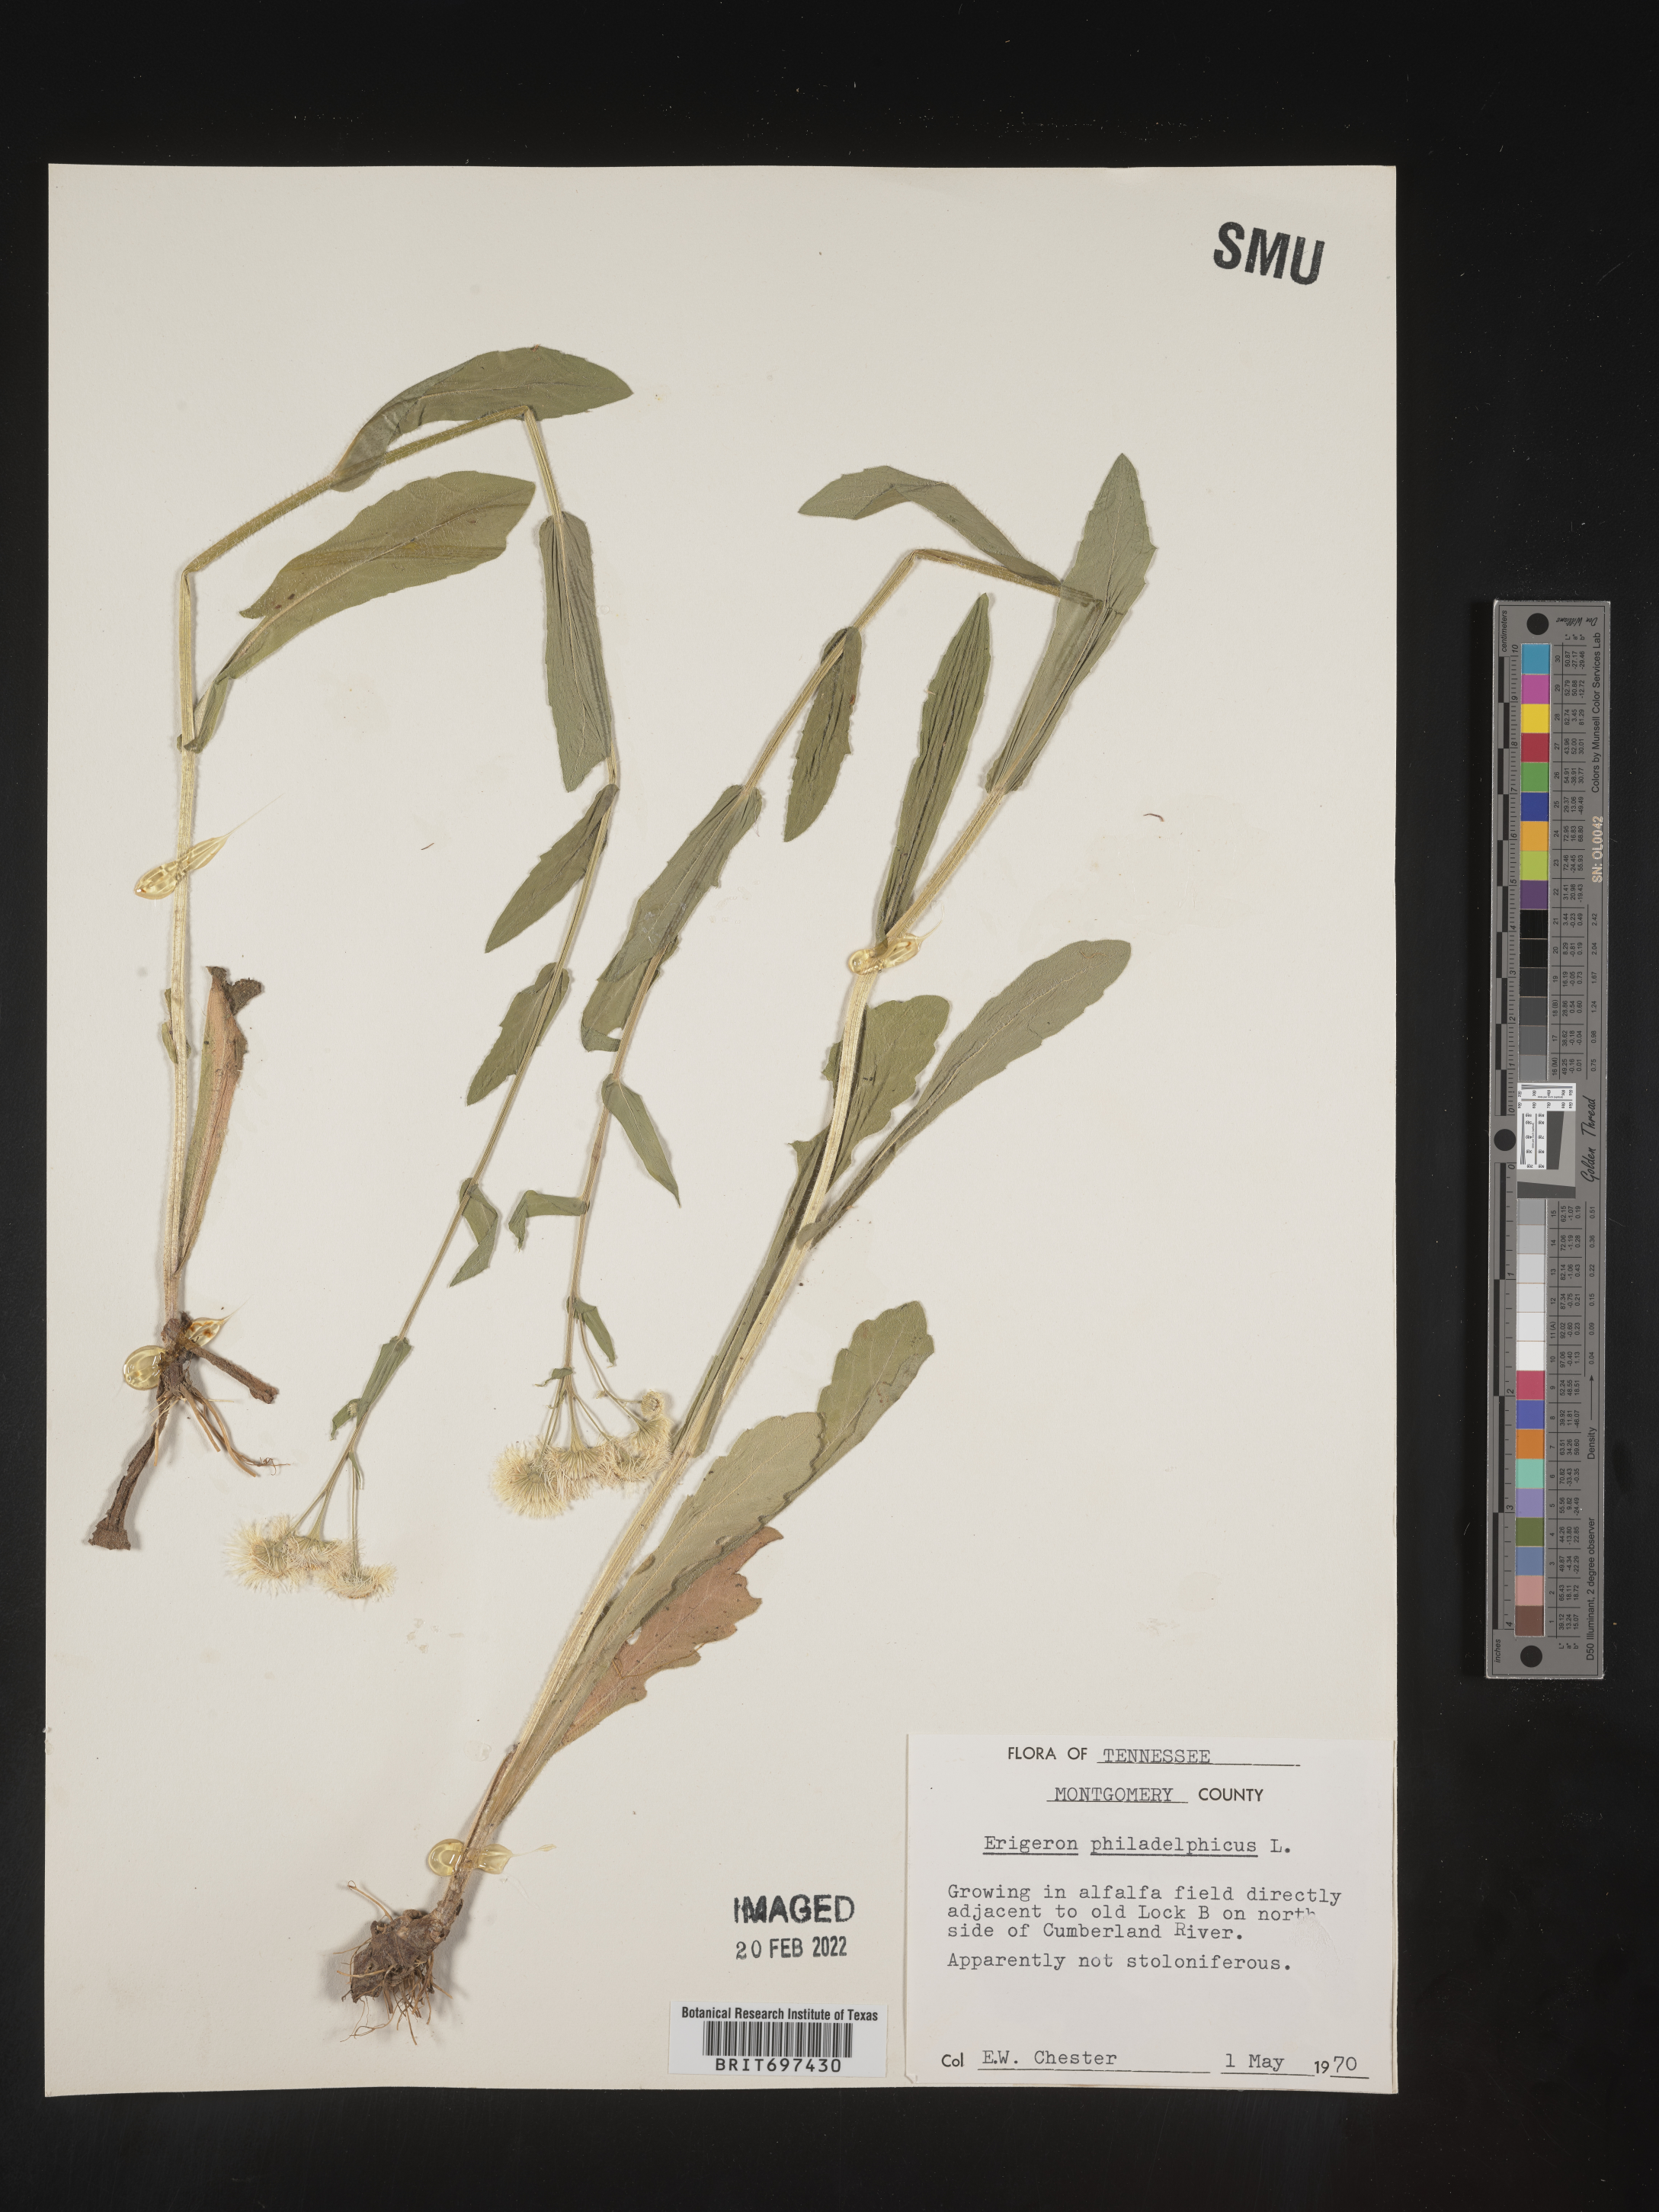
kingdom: Plantae
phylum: Tracheophyta
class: Magnoliopsida
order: Asterales
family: Asteraceae
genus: Erigeron
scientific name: Erigeron philadelphicus
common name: Robin's-plantain
